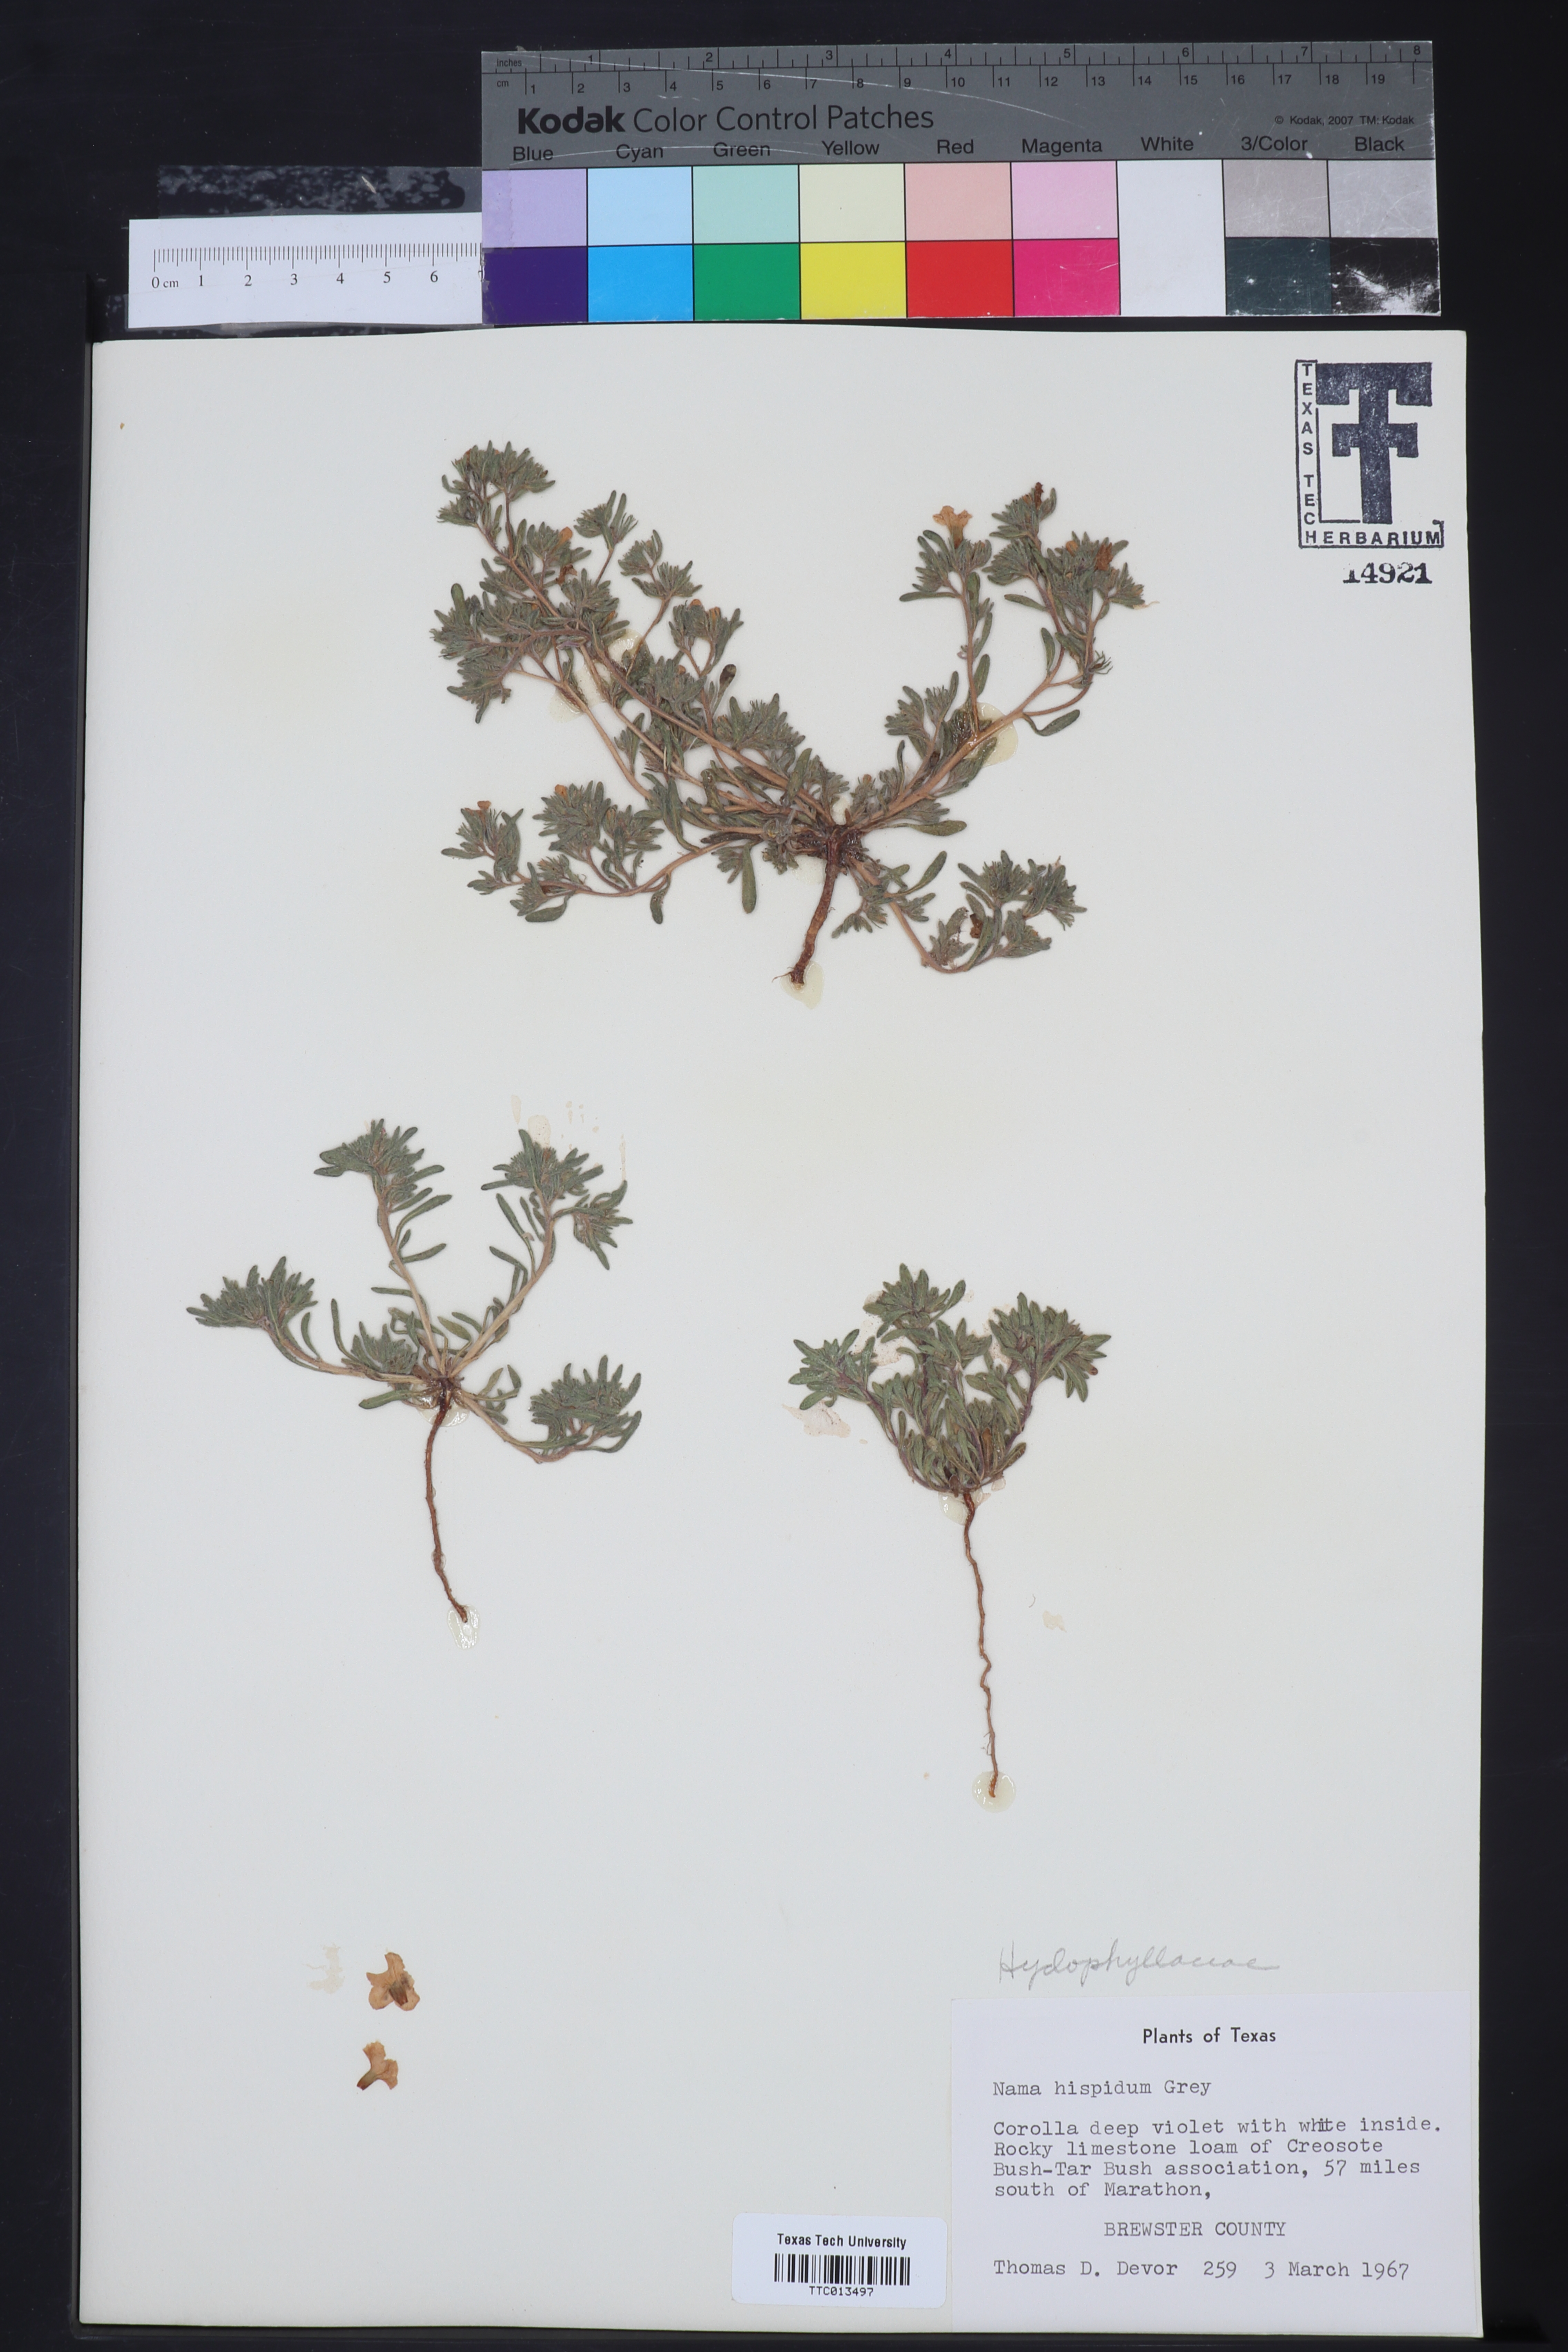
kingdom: Plantae
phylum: Tracheophyta
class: Magnoliopsida
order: Boraginales
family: Namaceae
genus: Nama
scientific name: Nama hispida
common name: Bristly nama
